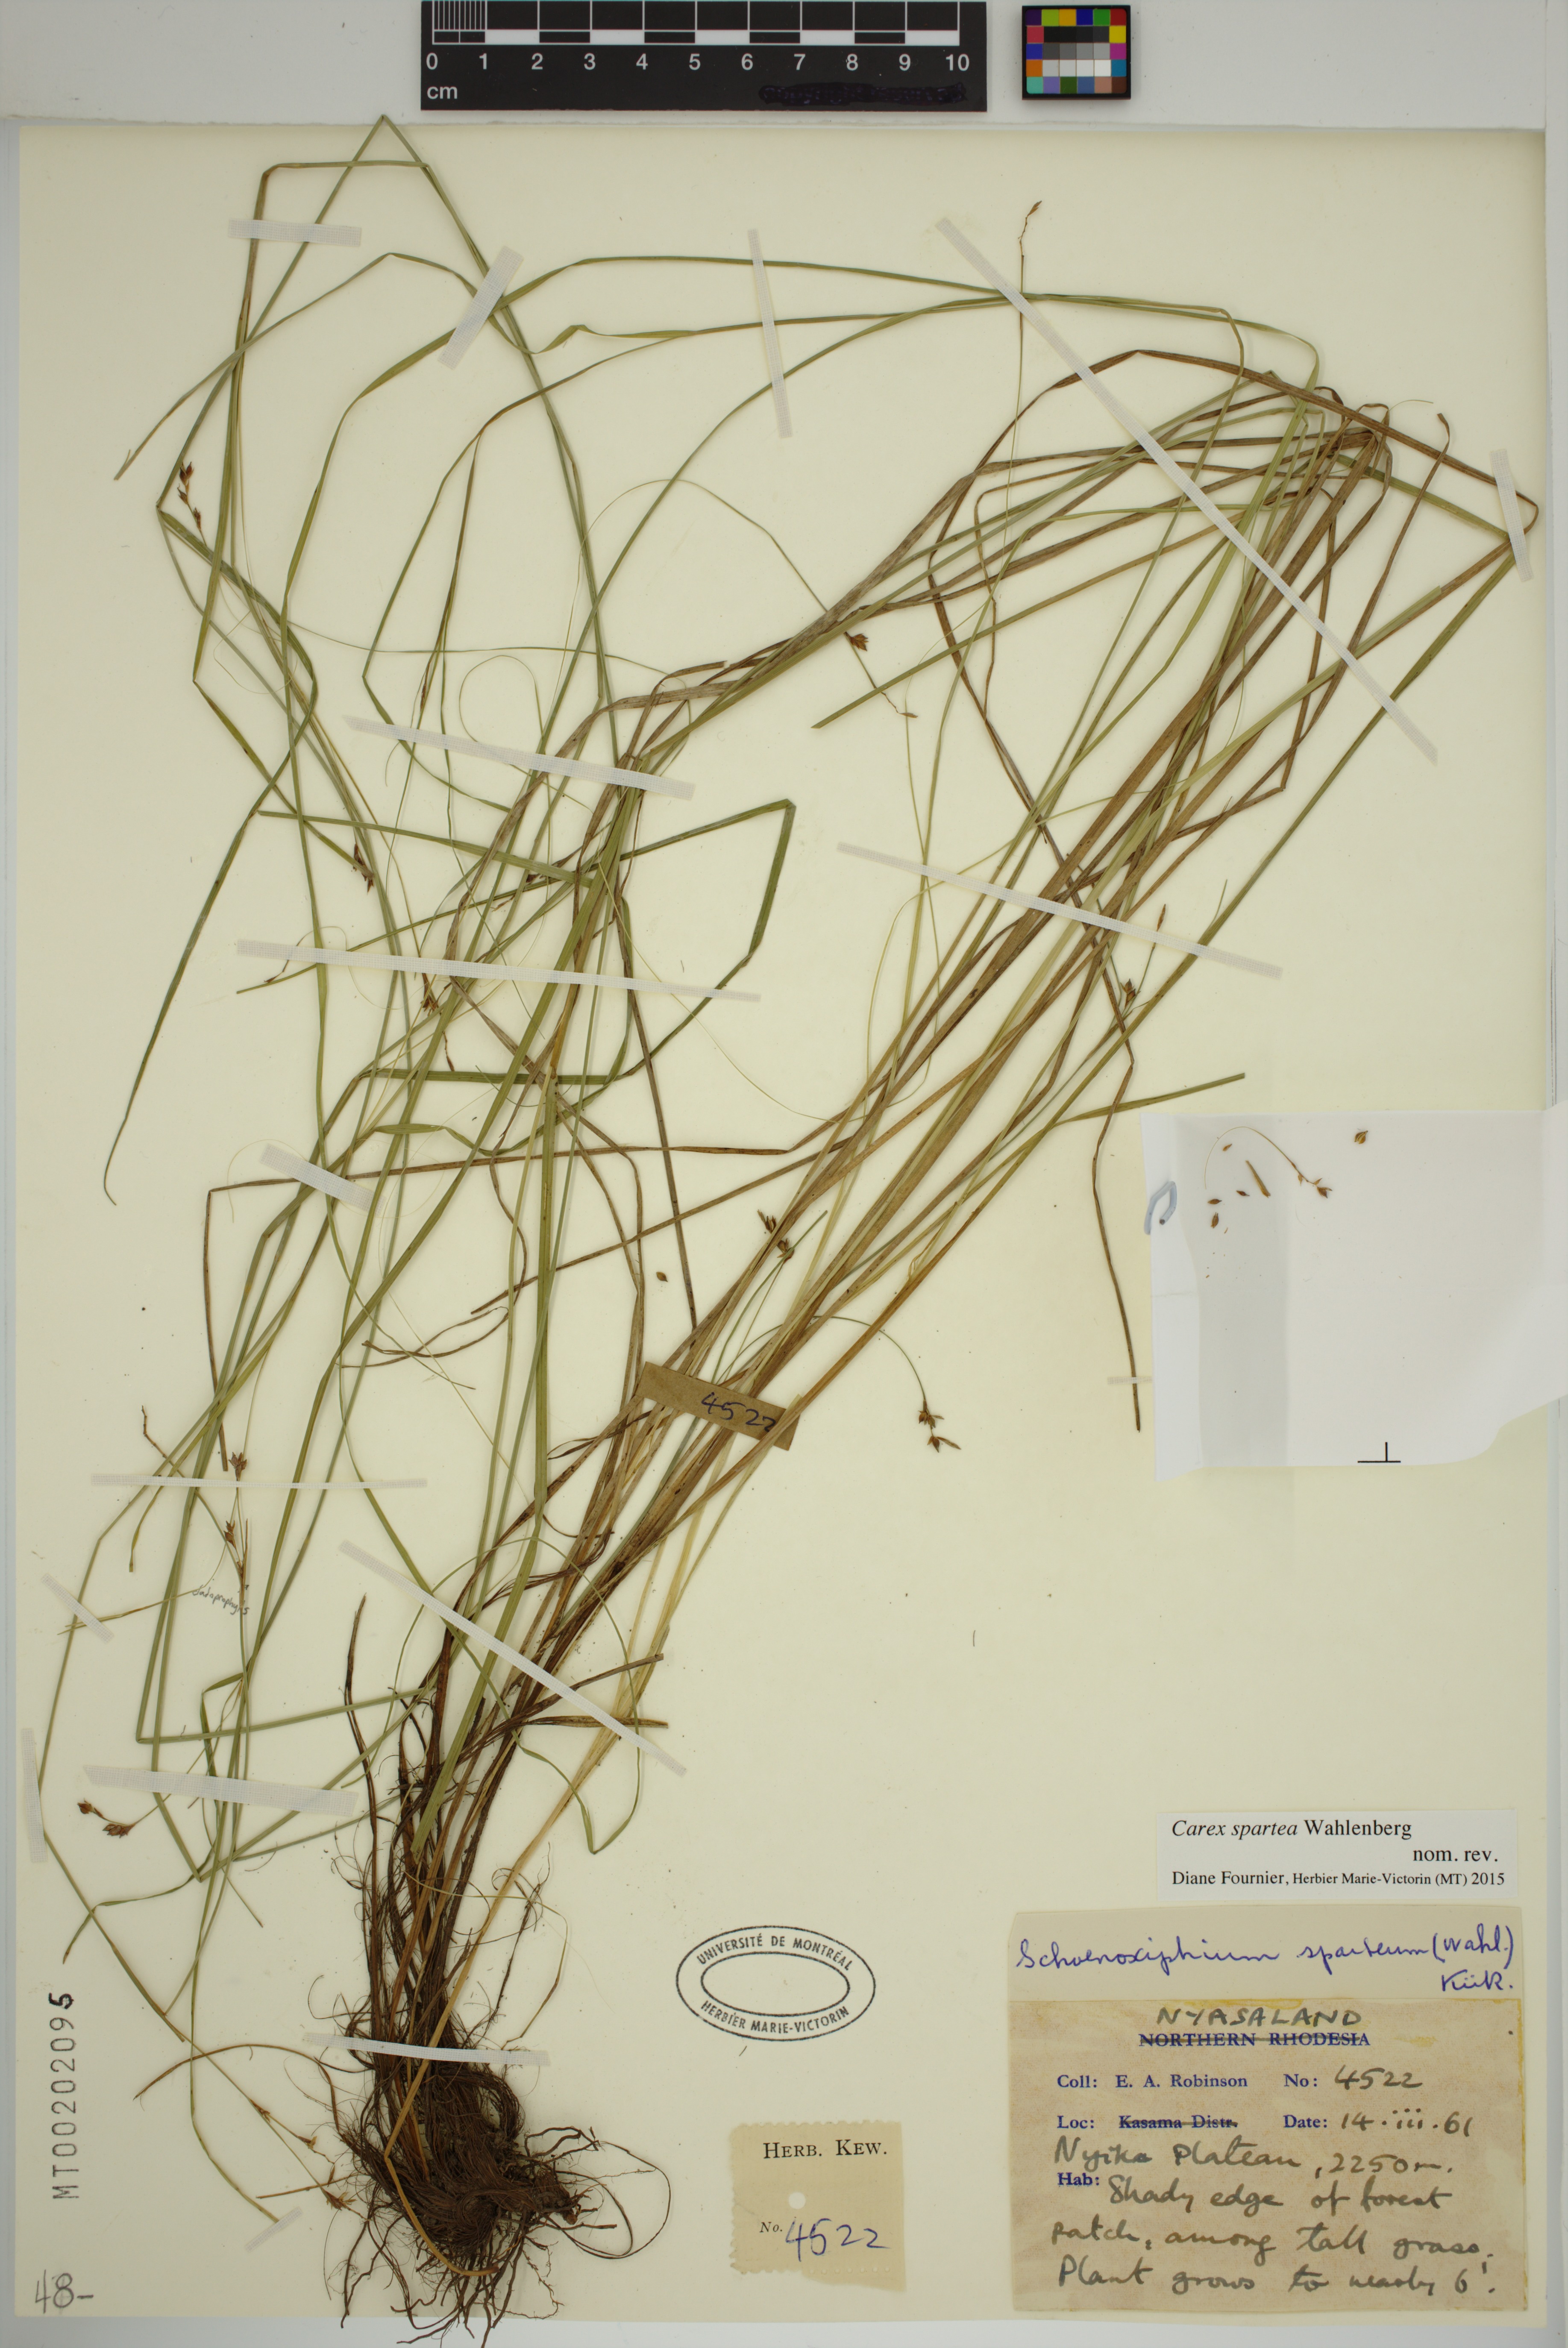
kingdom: Plantae
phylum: Tracheophyta
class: Liliopsida
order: Poales
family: Cyperaceae
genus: Carex
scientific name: Carex spartea
